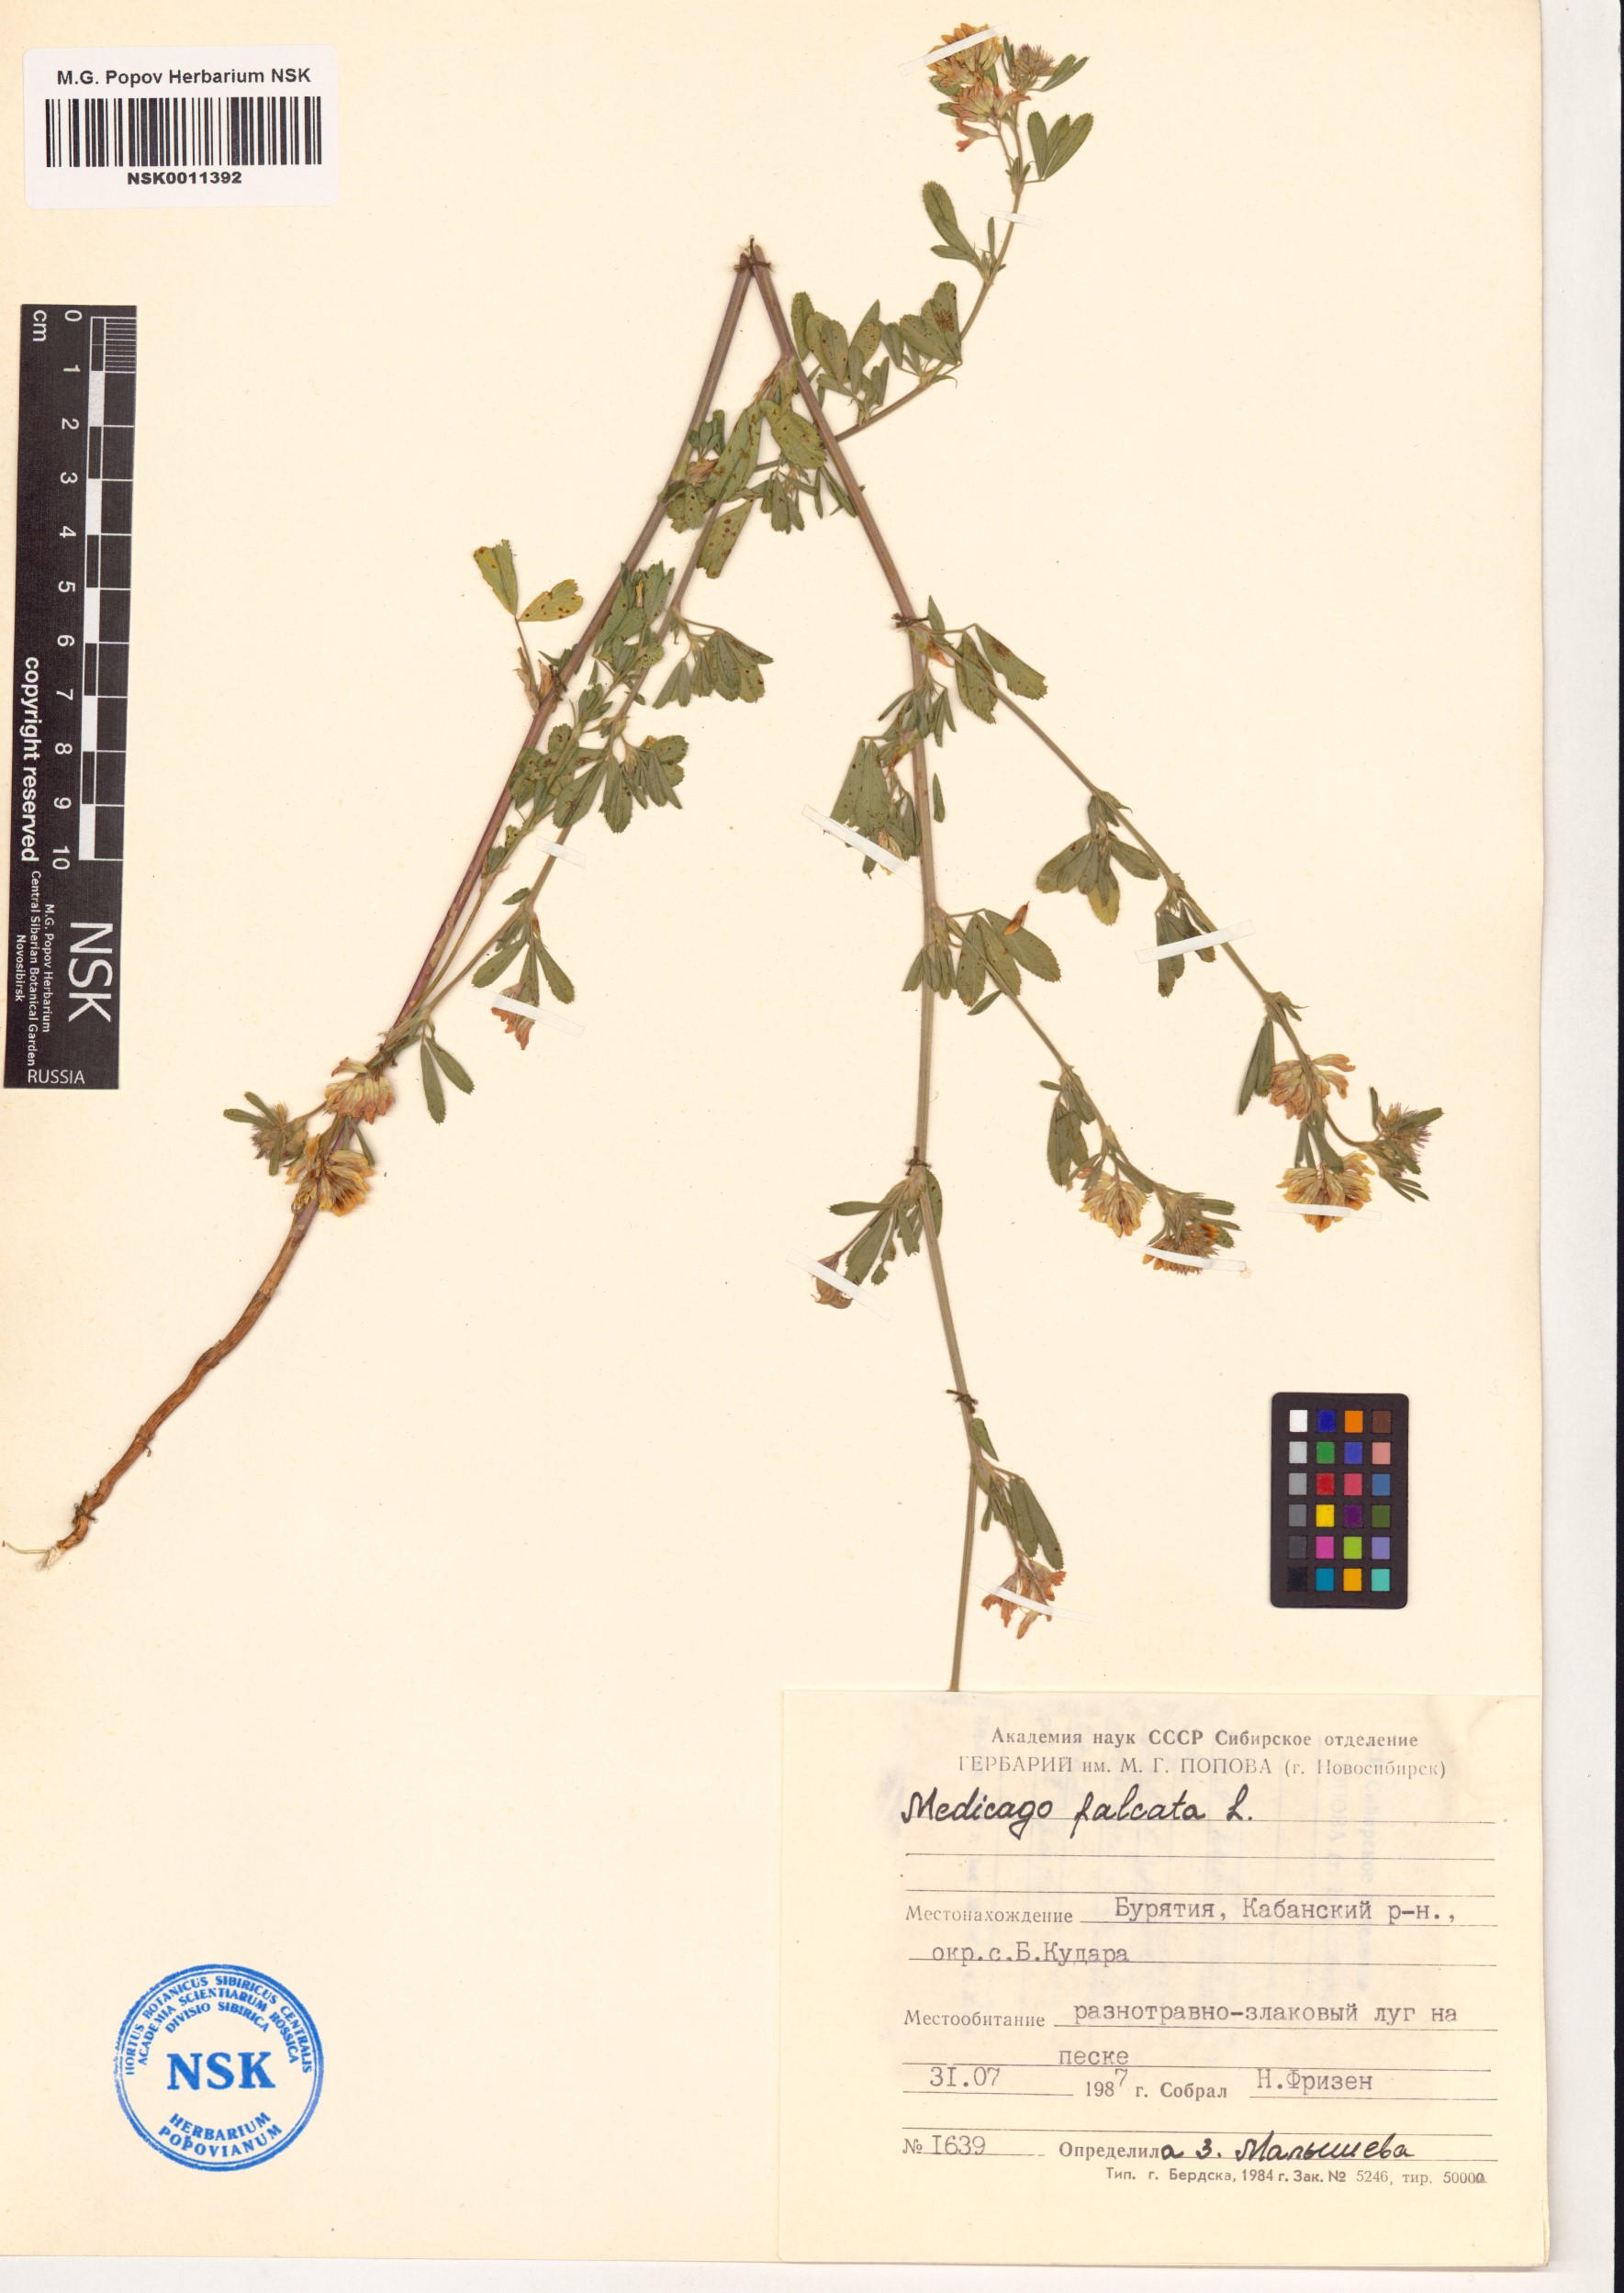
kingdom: Plantae
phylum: Tracheophyta
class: Magnoliopsida
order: Fabales
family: Fabaceae
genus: Medicago
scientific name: Medicago falcata
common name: Sickle medick
